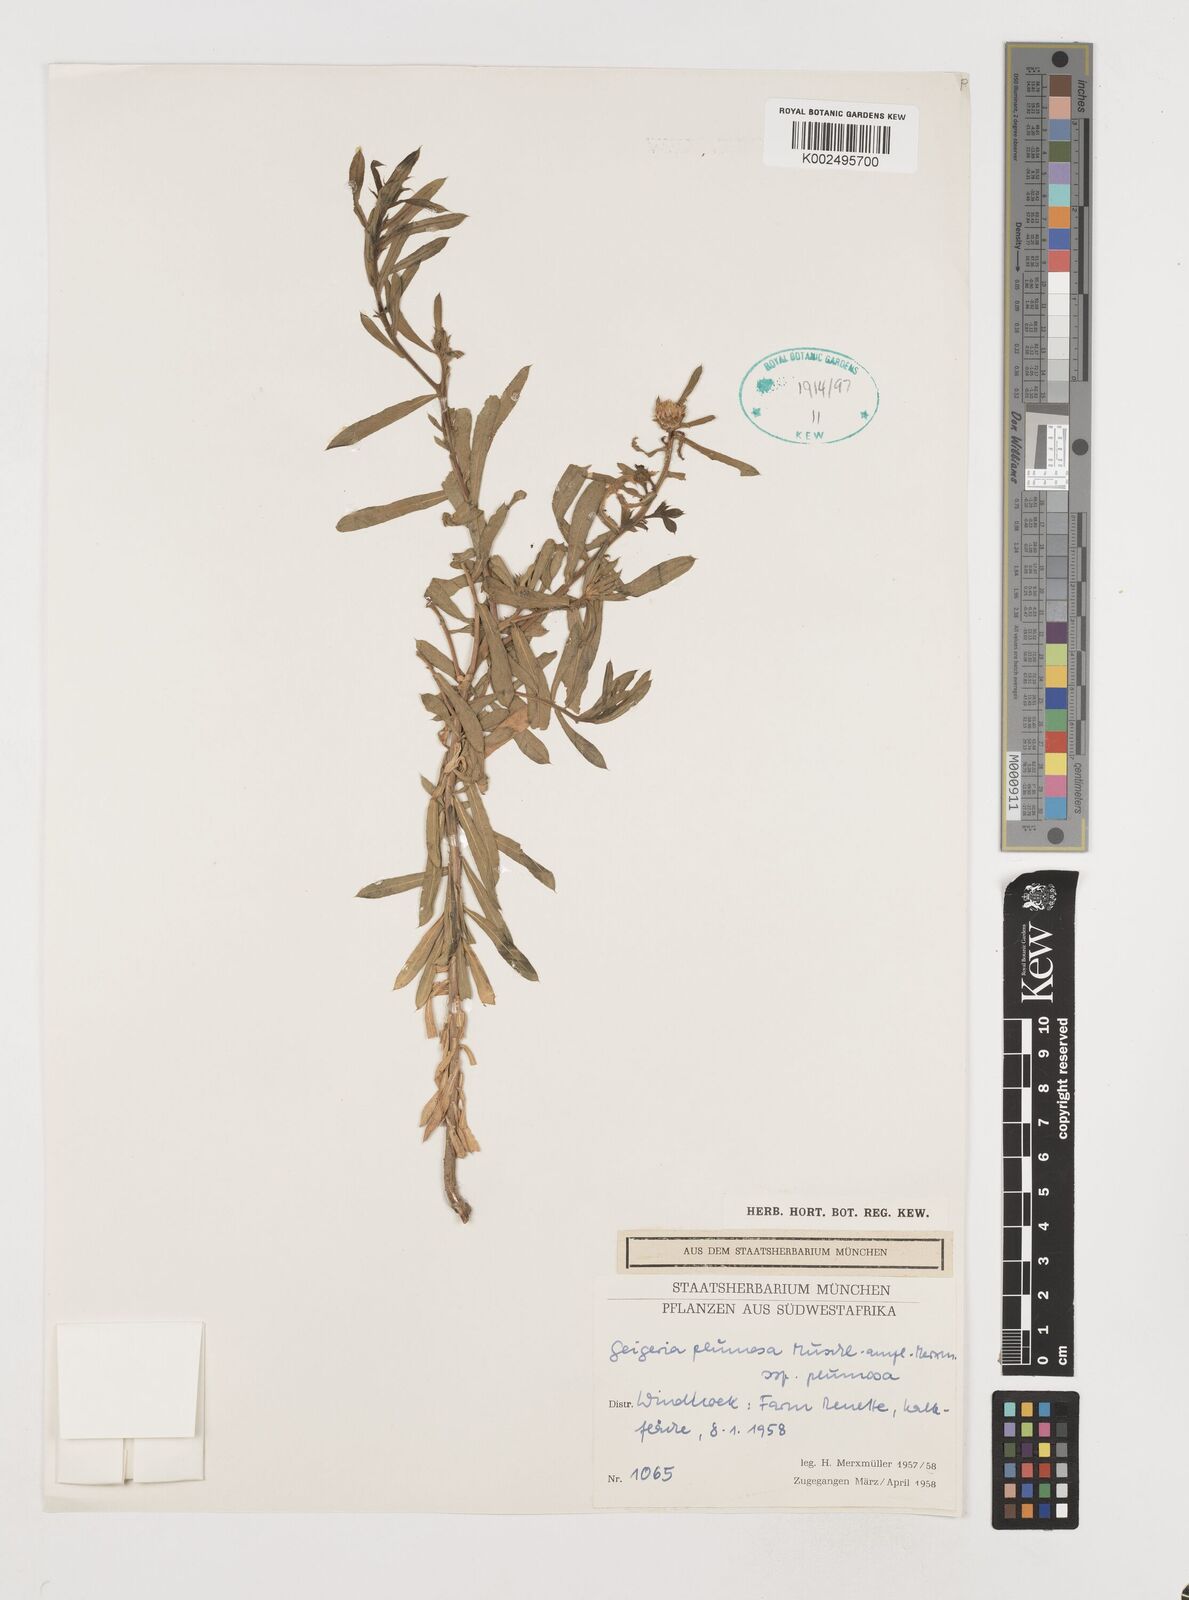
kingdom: Plantae
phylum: Tracheophyta
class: Magnoliopsida
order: Asterales
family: Asteraceae
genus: Geigeria
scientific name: Geigeria plumosa
